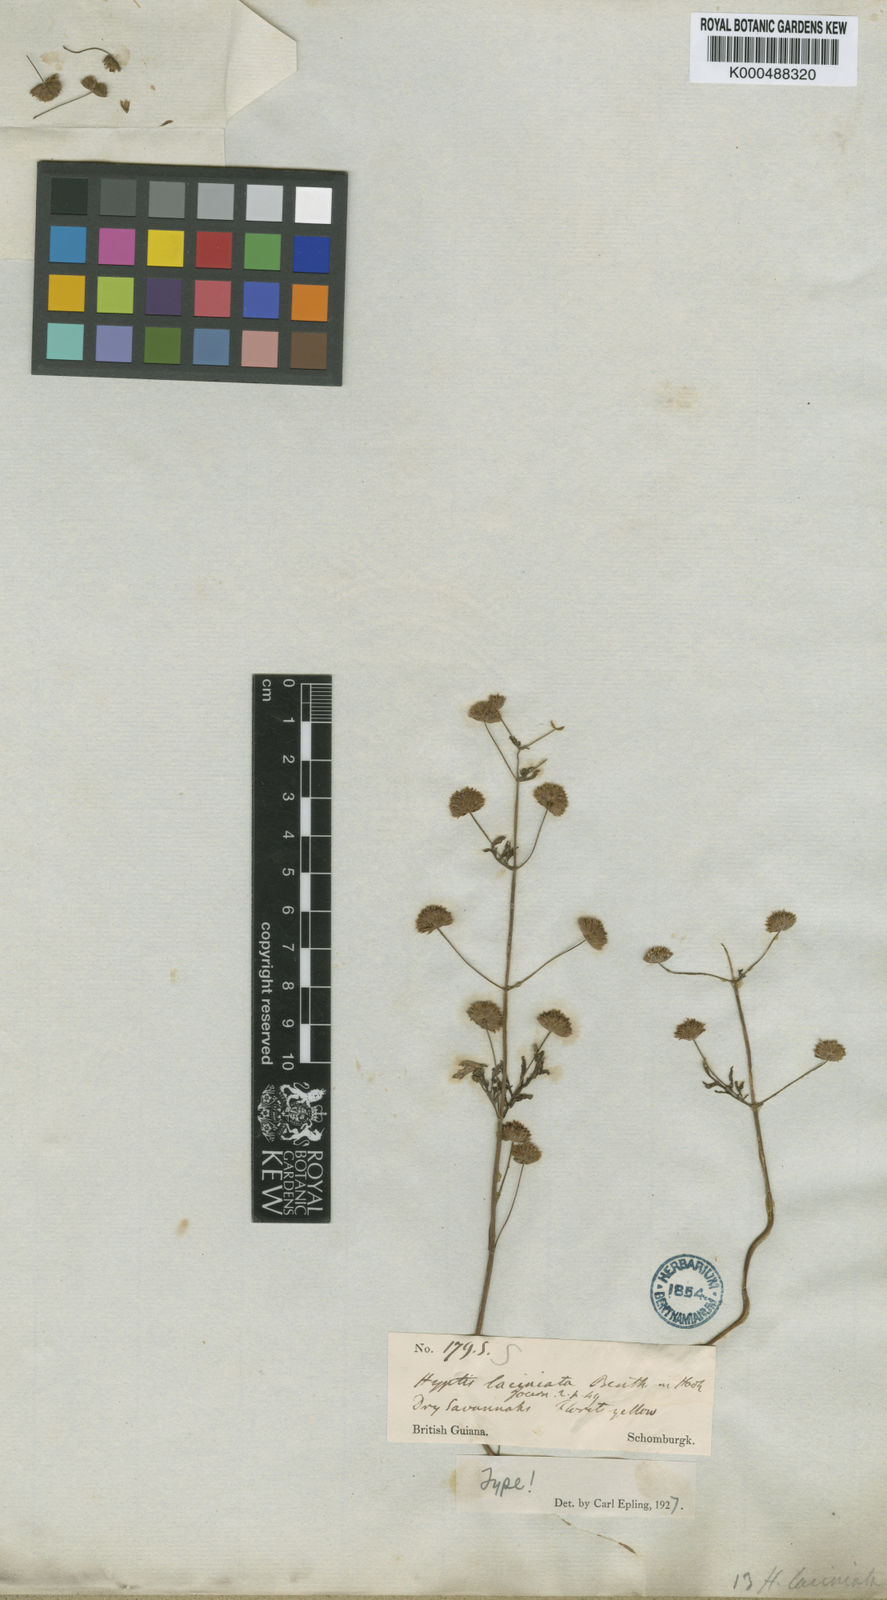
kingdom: Plantae
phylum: Tracheophyta
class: Magnoliopsida
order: Lamiales
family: Lamiaceae
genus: Hyptis
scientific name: Hyptis laciniata
